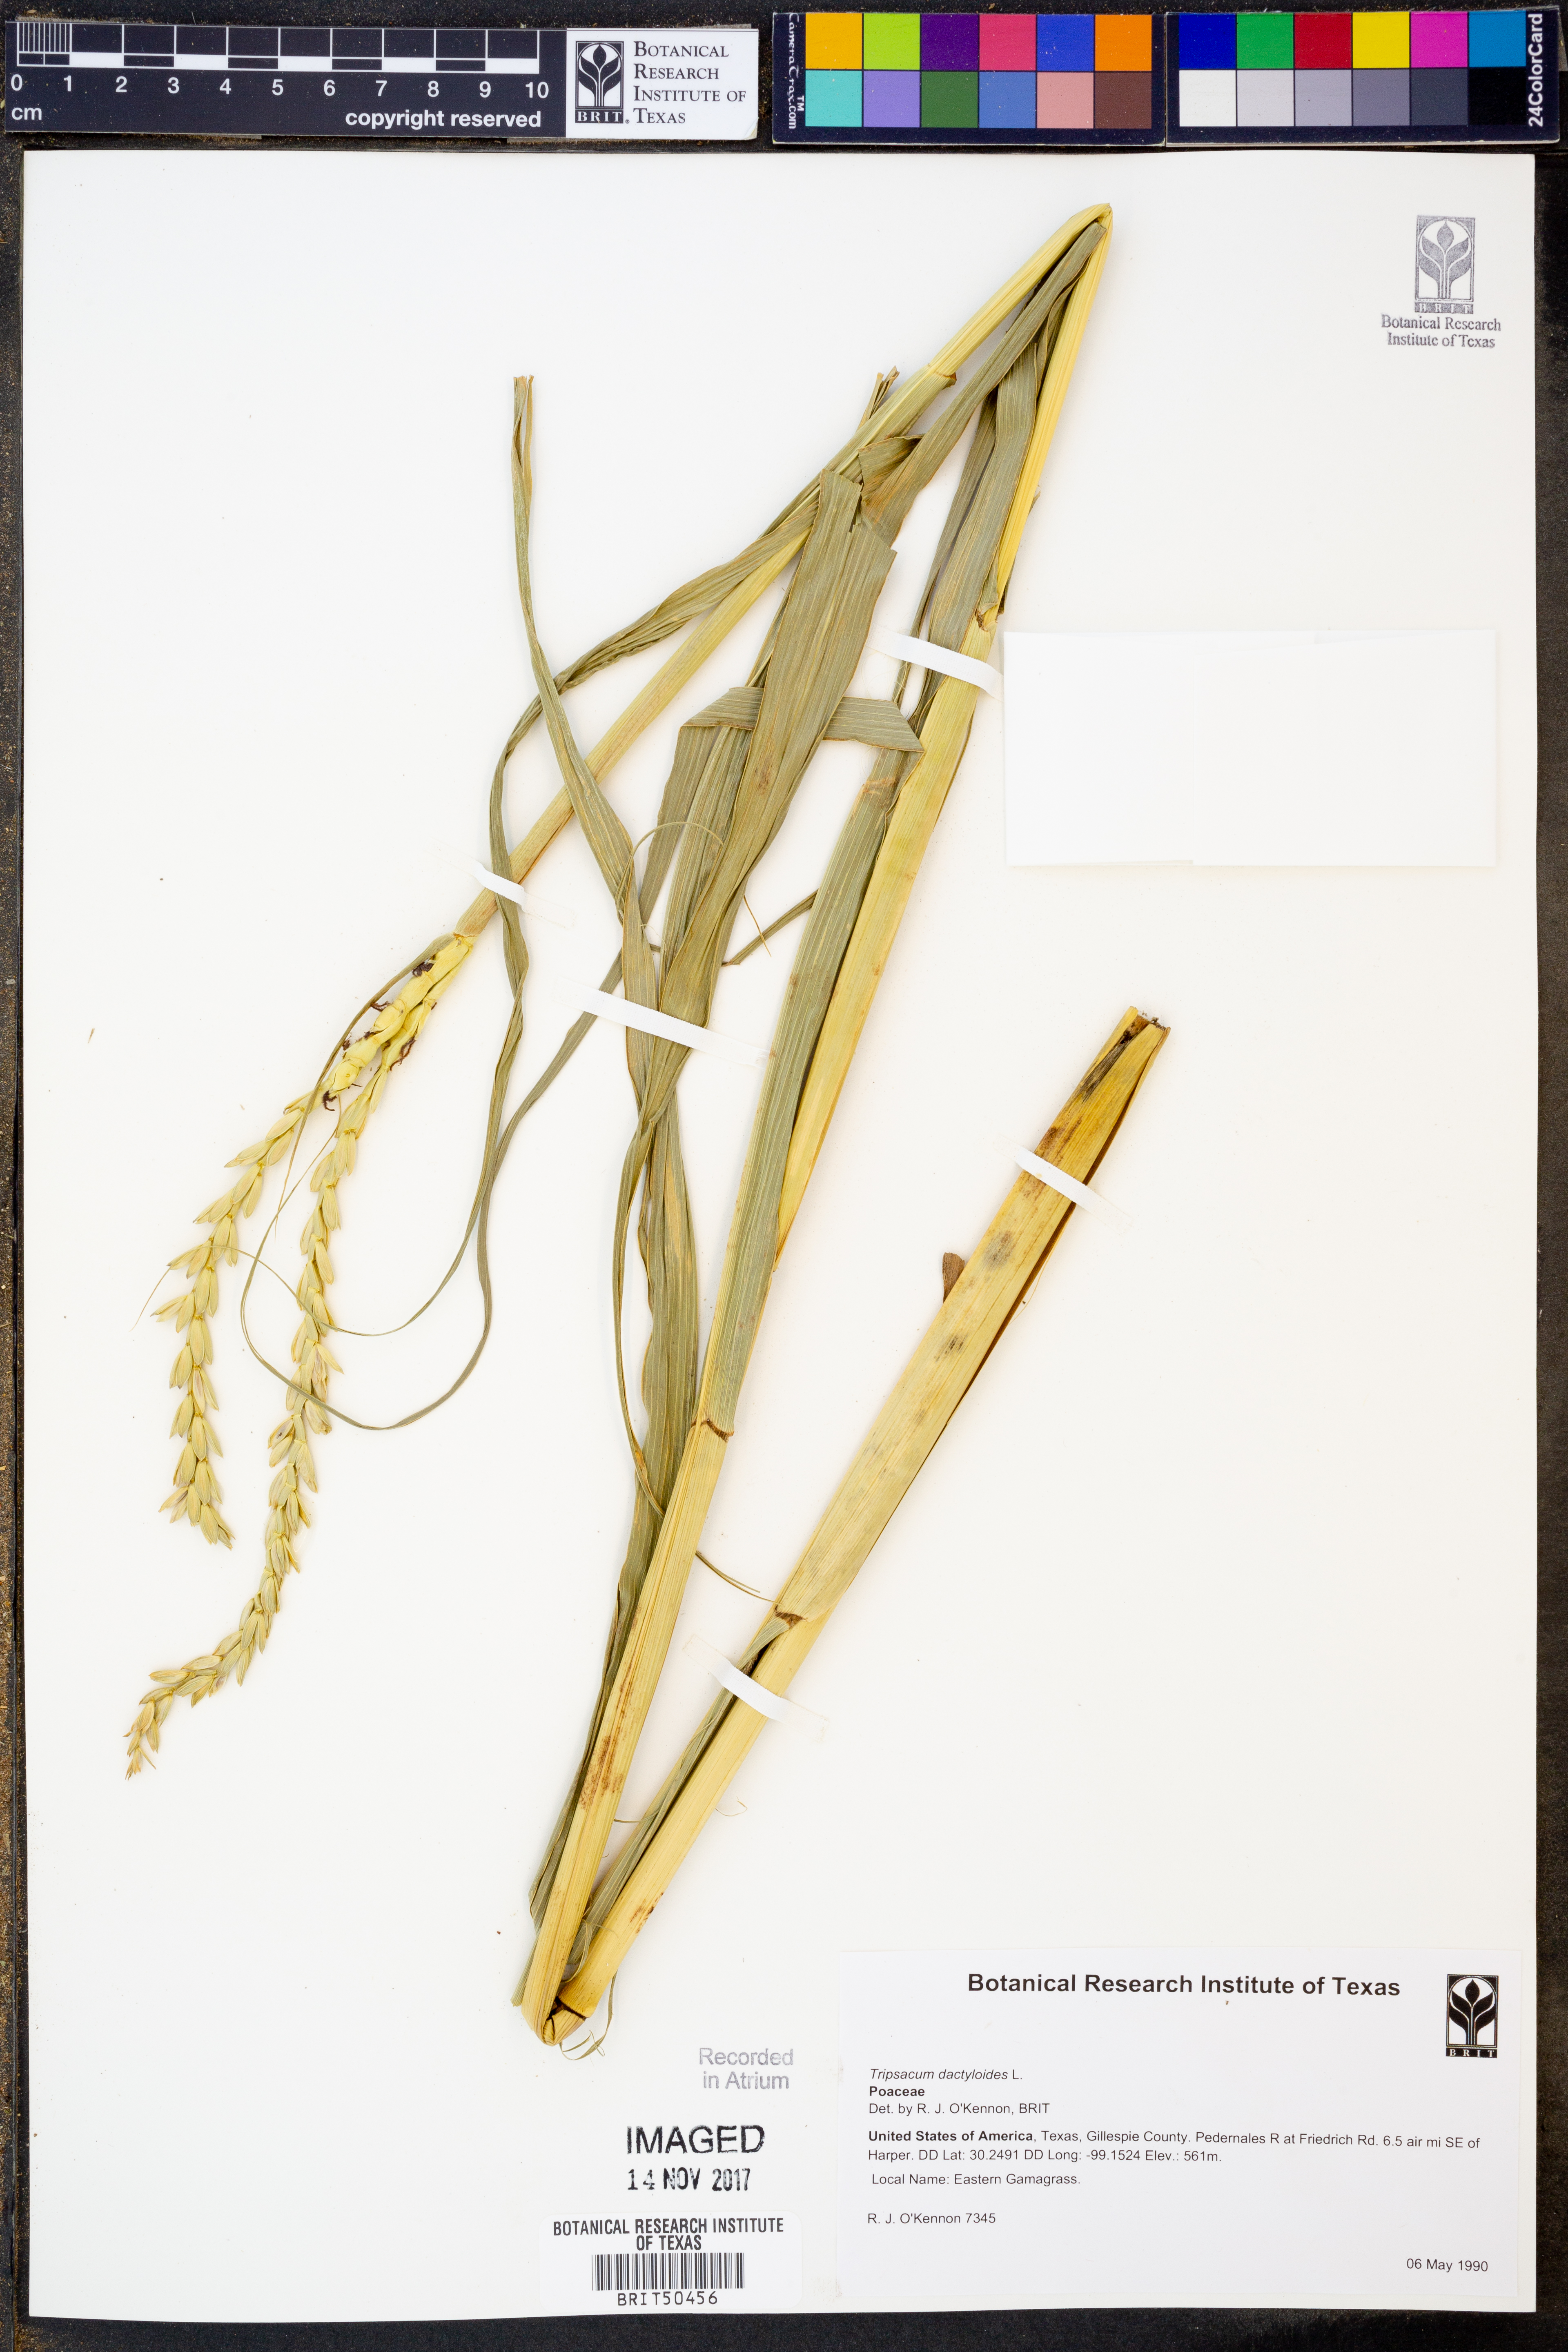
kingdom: Plantae
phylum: Tracheophyta
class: Liliopsida
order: Poales
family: Poaceae
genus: Tripsacum
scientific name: Tripsacum dactyloides
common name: Buffalo-grass
